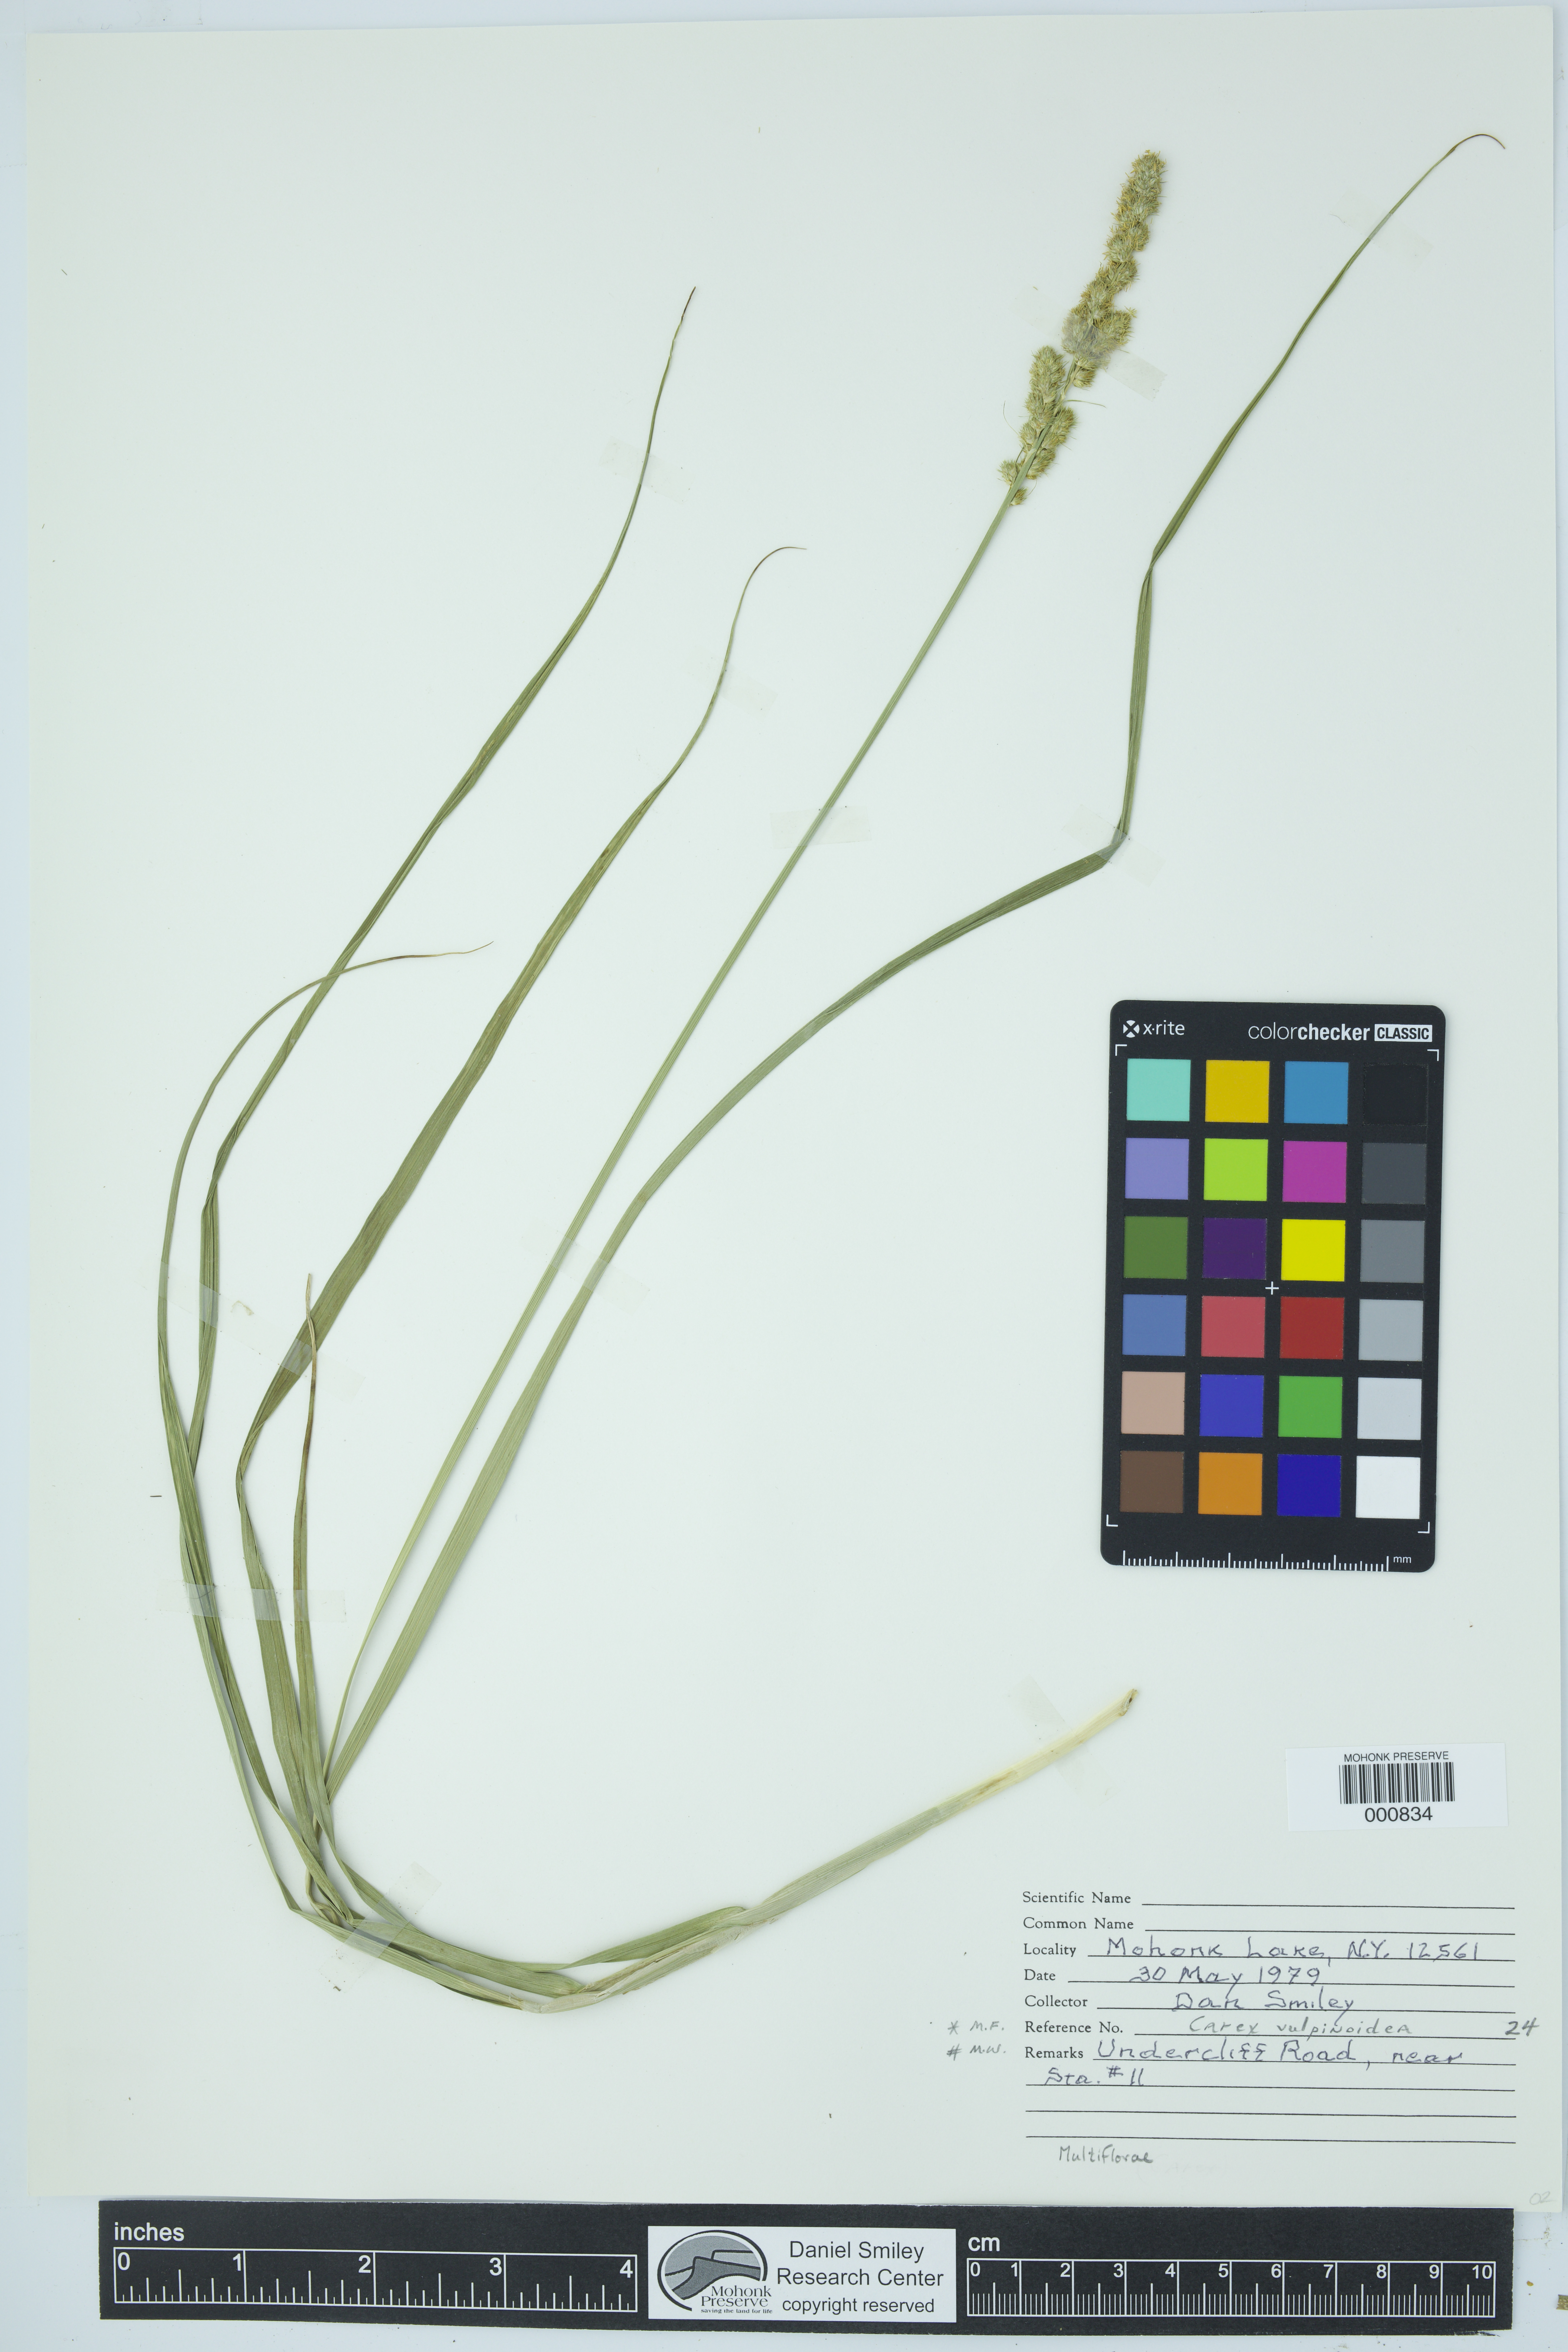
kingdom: Plantae
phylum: Tracheophyta
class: Liliopsida
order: Poales
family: Cyperaceae
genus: Carex
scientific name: Carex vulpinoidea
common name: American fox-sedge
